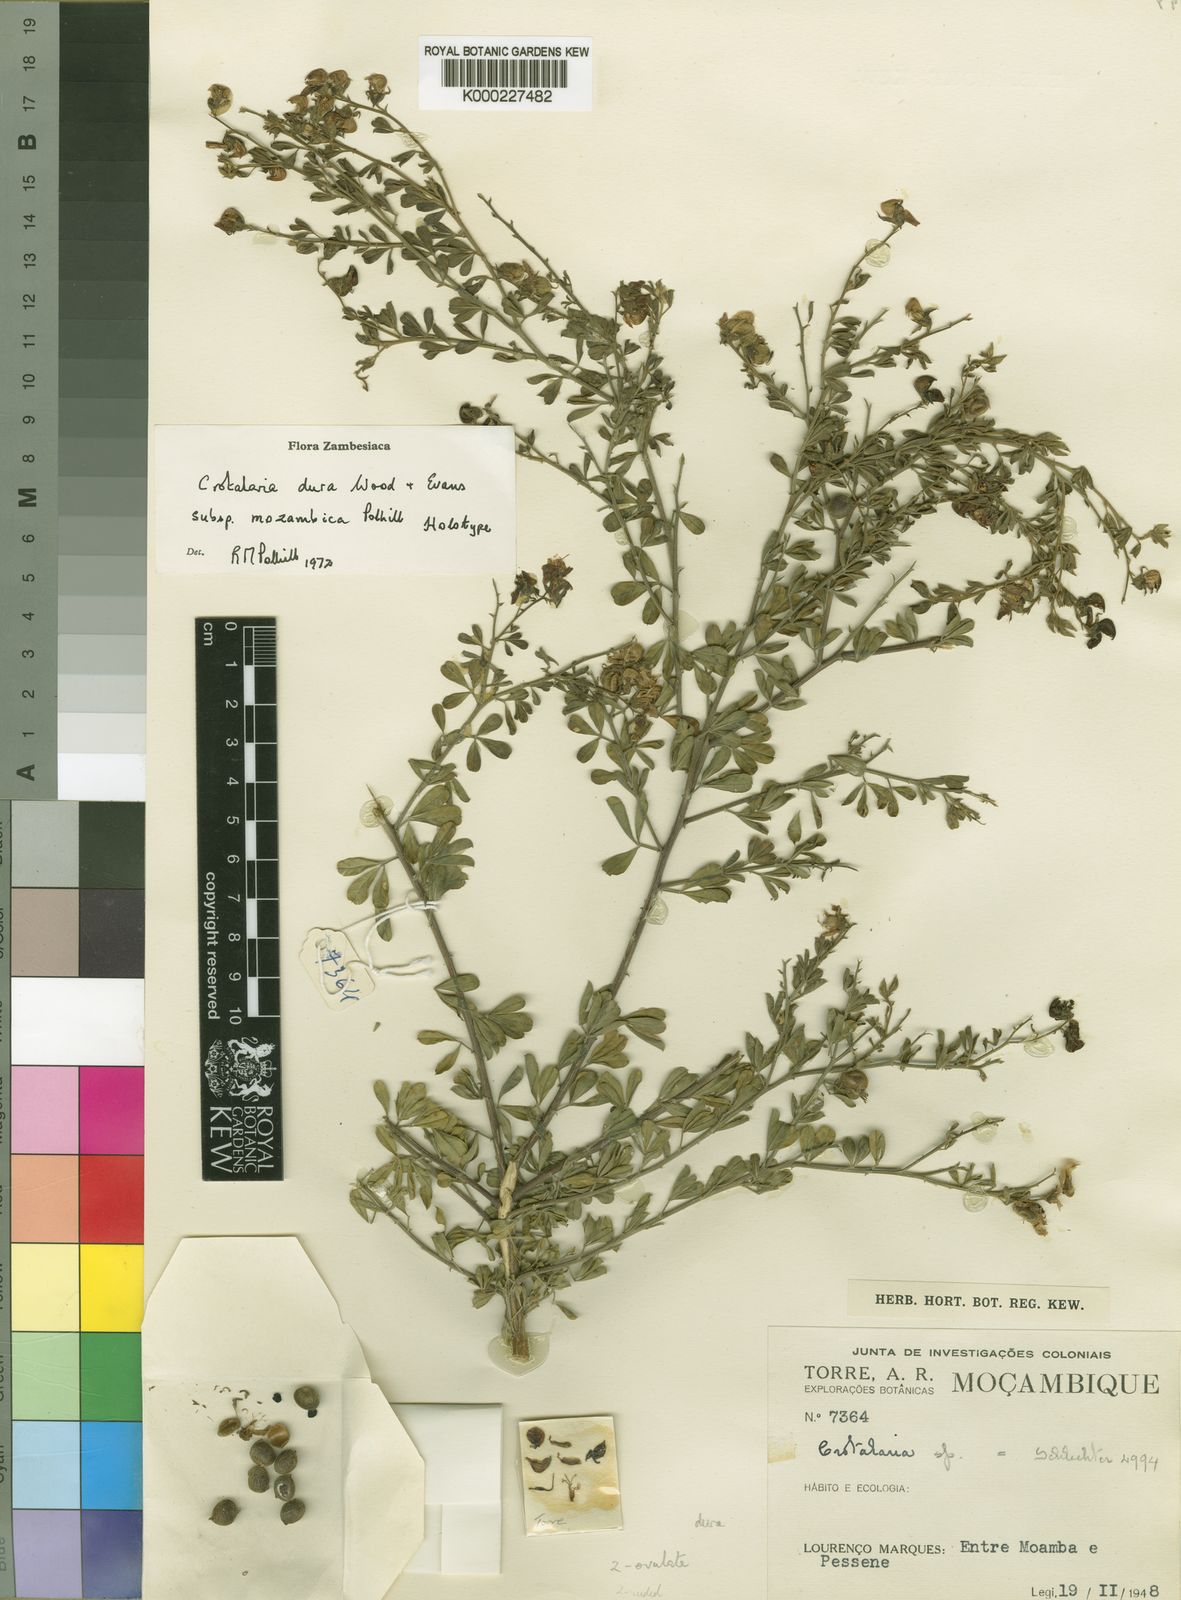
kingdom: Plantae
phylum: Tracheophyta
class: Magnoliopsida
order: Fabales
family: Fabaceae
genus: Crotalaria
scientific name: Crotalaria dura
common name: Wild lucerne
